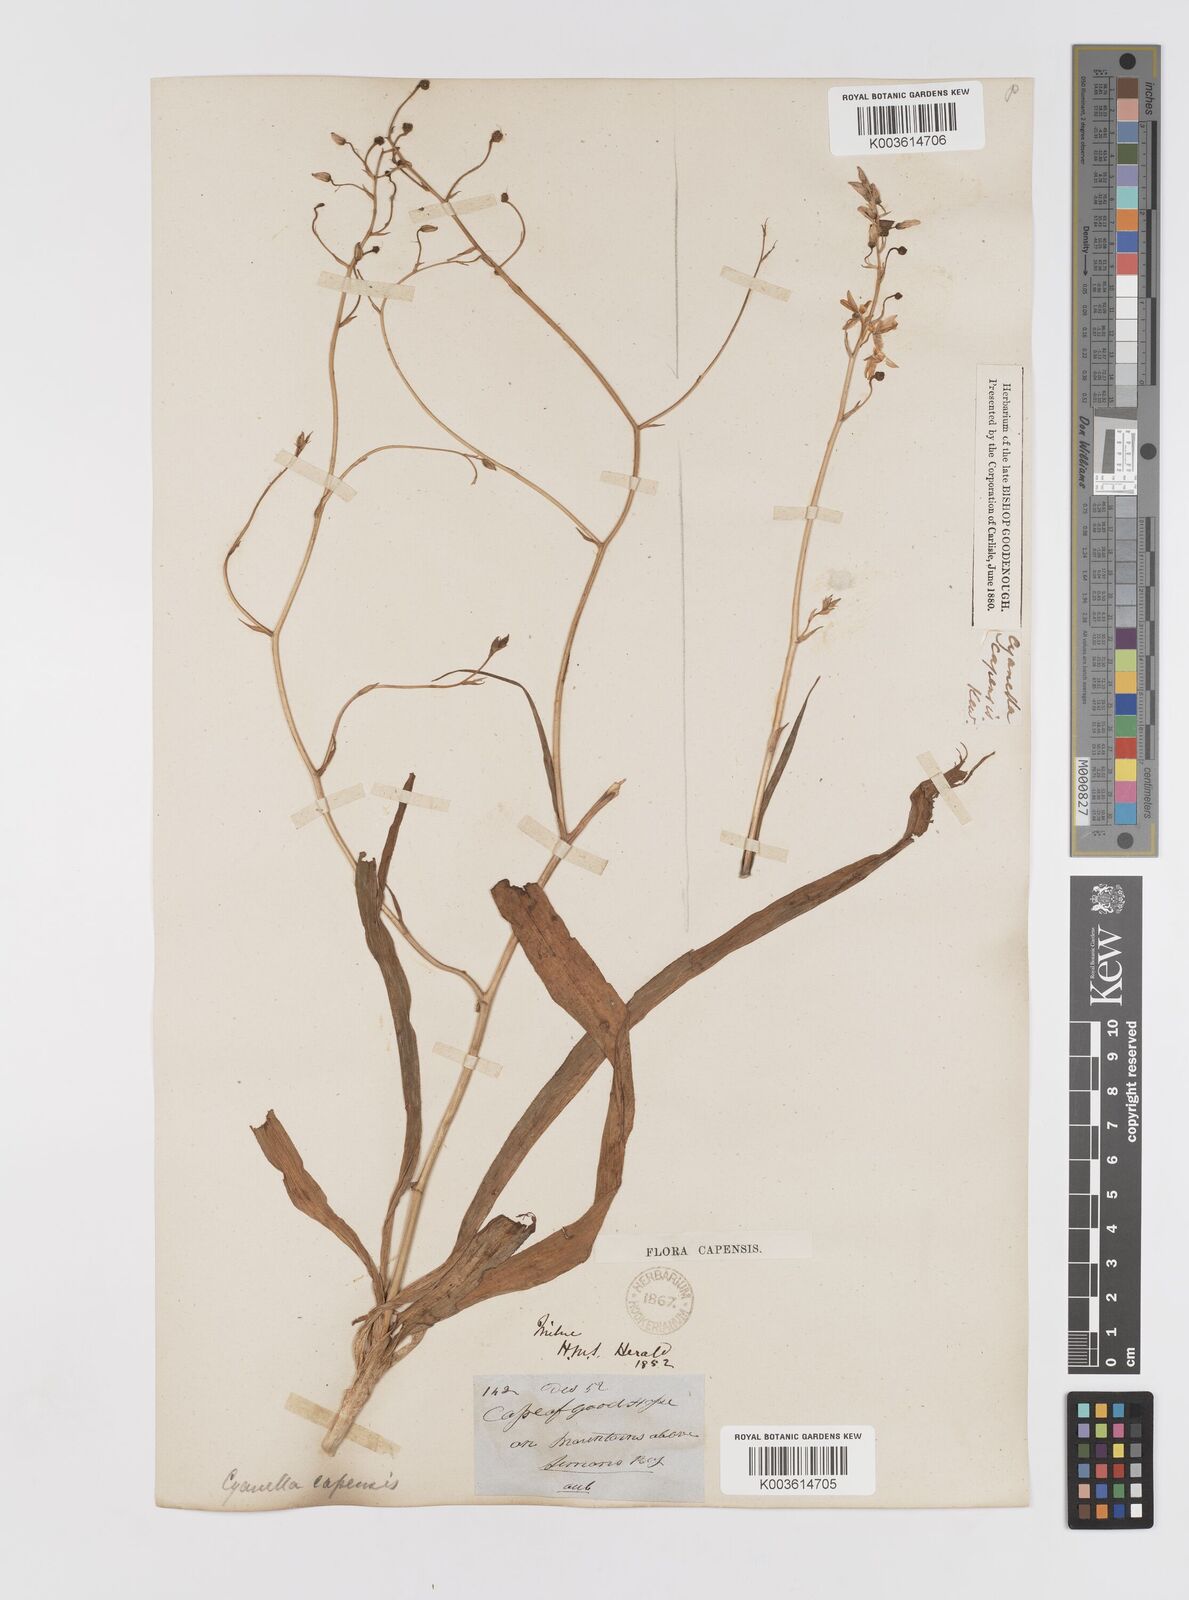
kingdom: Plantae
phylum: Tracheophyta
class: Liliopsida
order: Asparagales
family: Tecophilaeaceae
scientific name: Tecophilaeaceae
